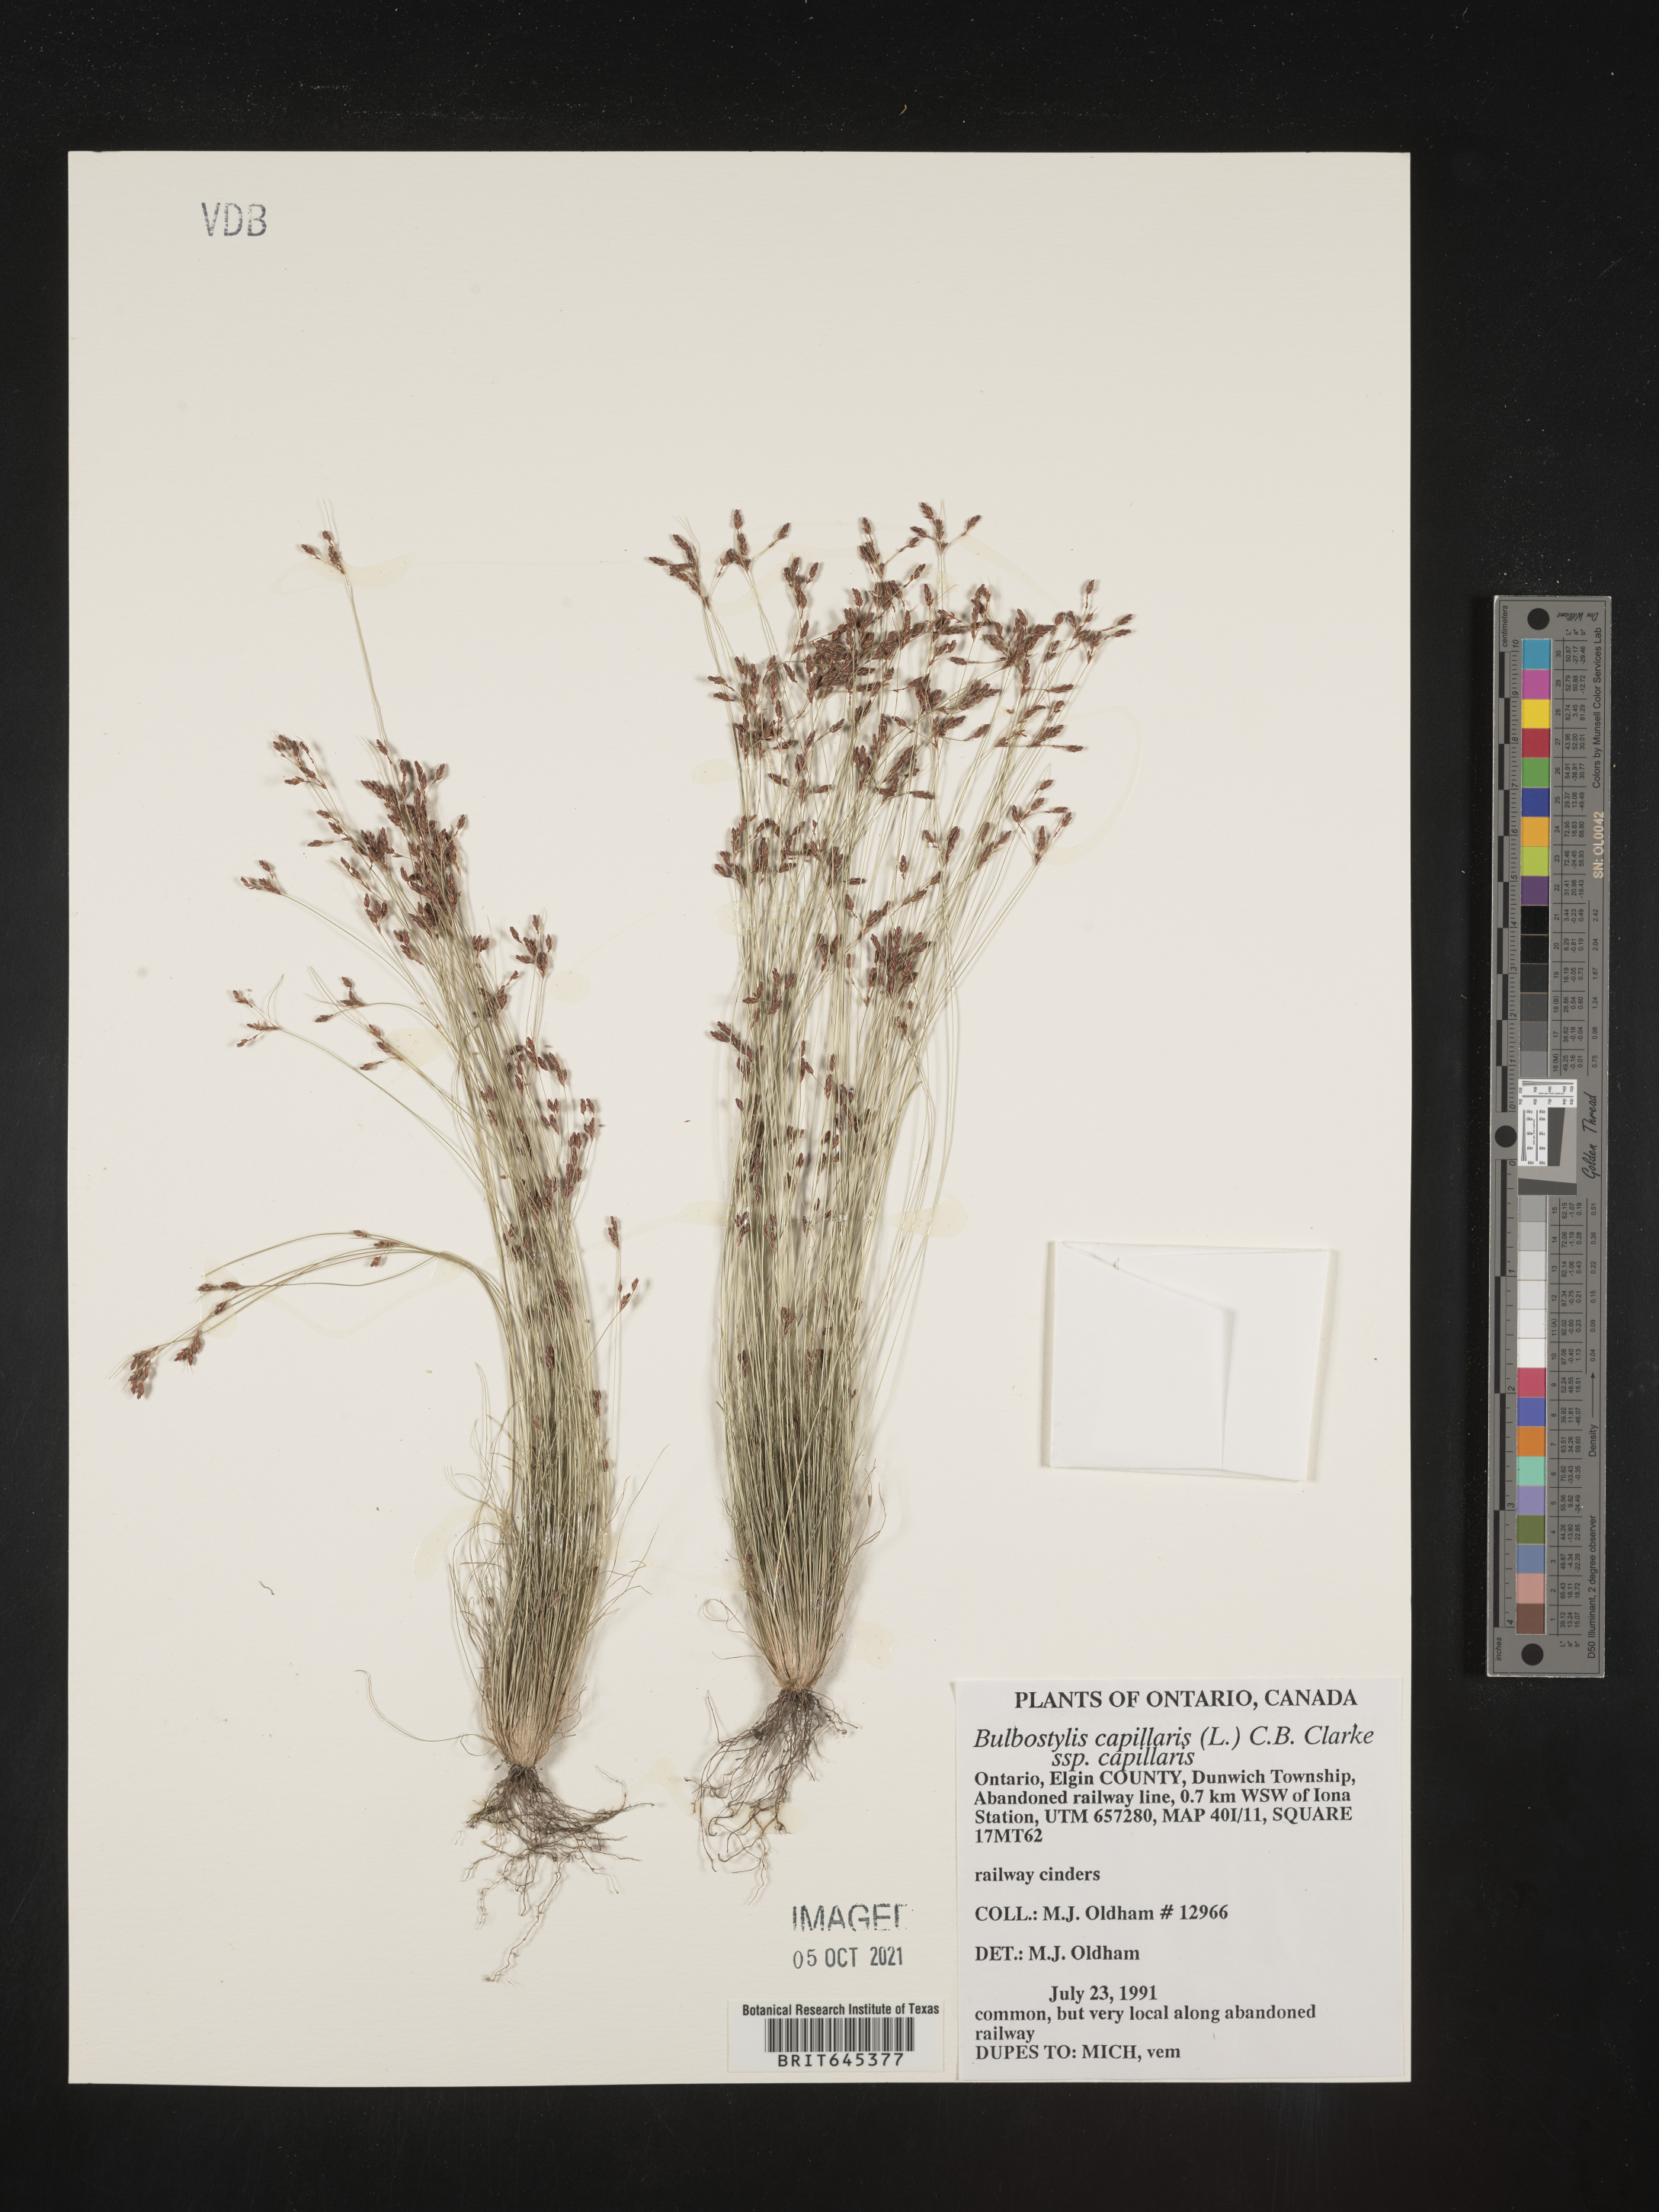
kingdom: Plantae
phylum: Tracheophyta
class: Liliopsida
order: Poales
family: Cyperaceae
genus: Bulbostylis
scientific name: Bulbostylis capillaris
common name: Densetuft hairsedge
